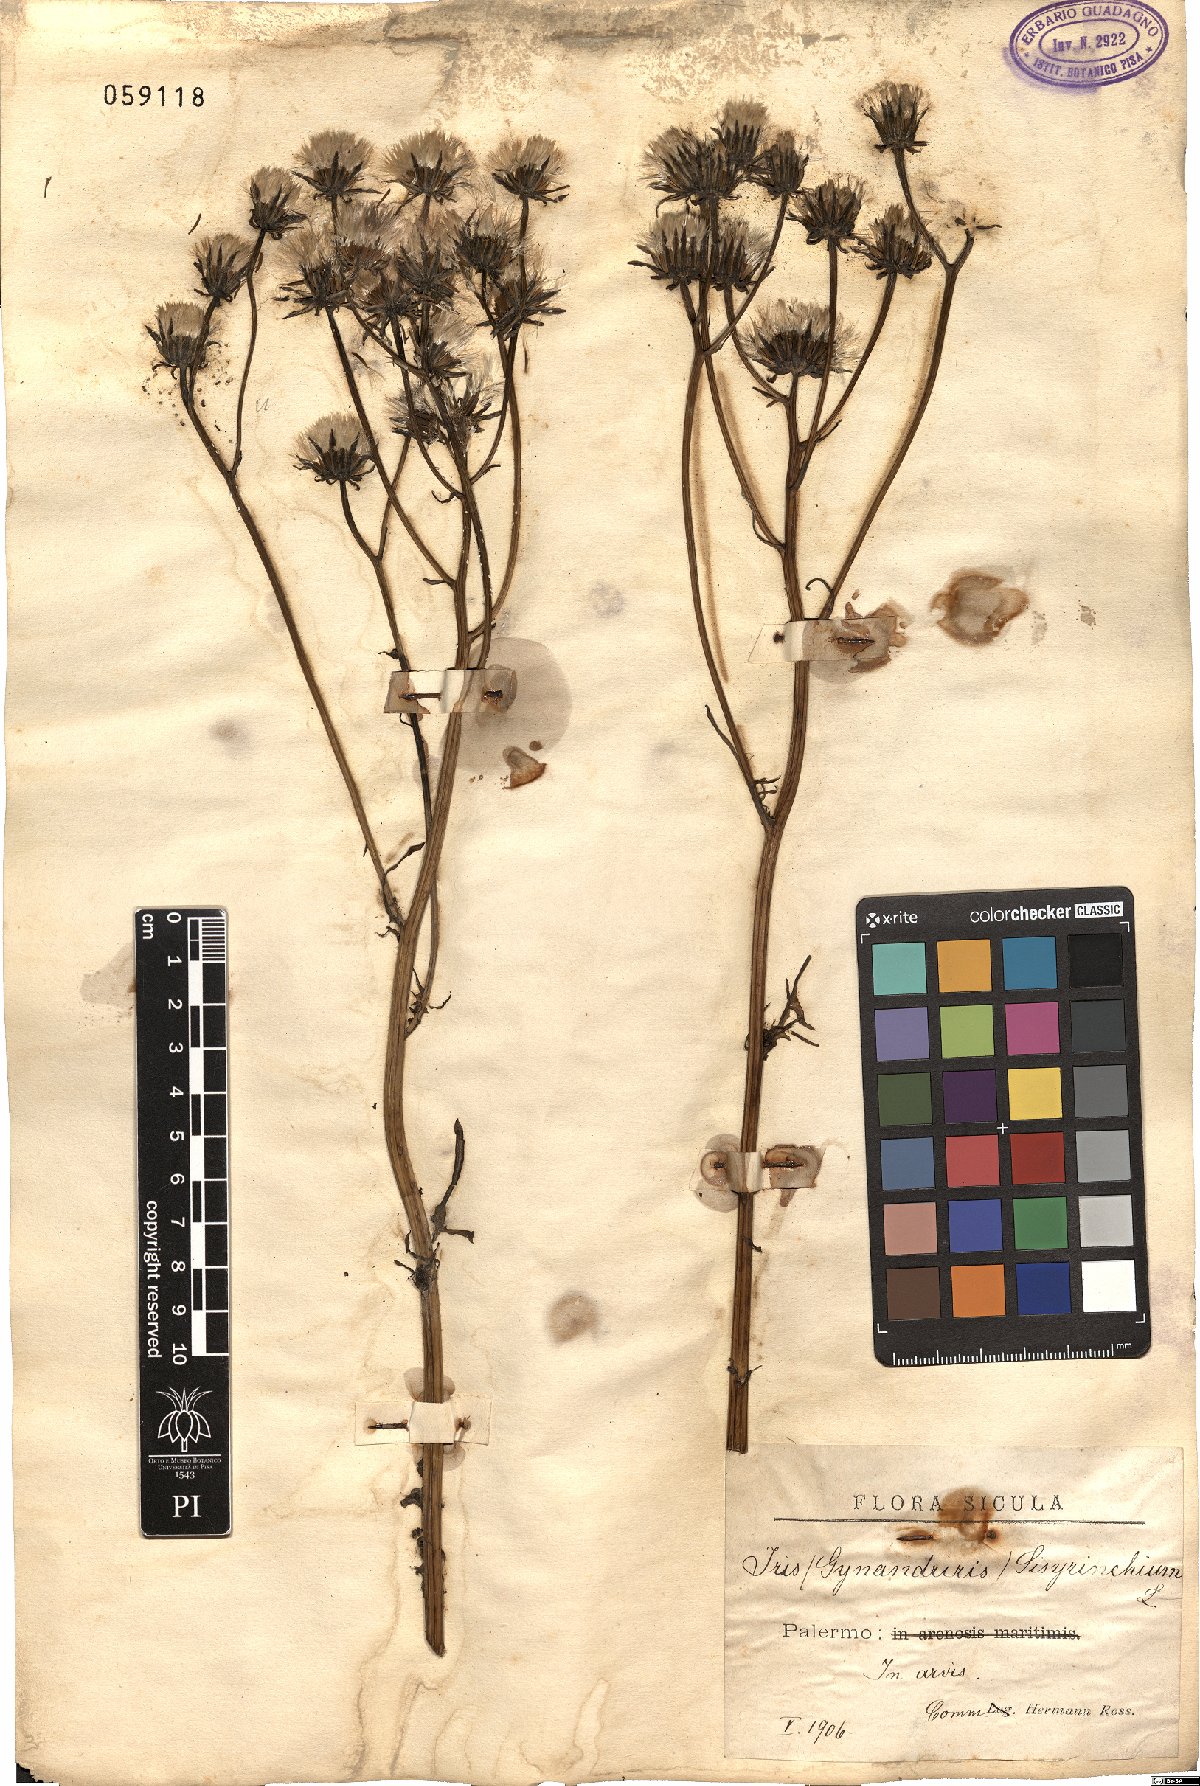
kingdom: Plantae
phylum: Tracheophyta
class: Magnoliopsida
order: Asterales
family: Asteraceae
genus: Crepis
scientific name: Crepis leontodontoides
